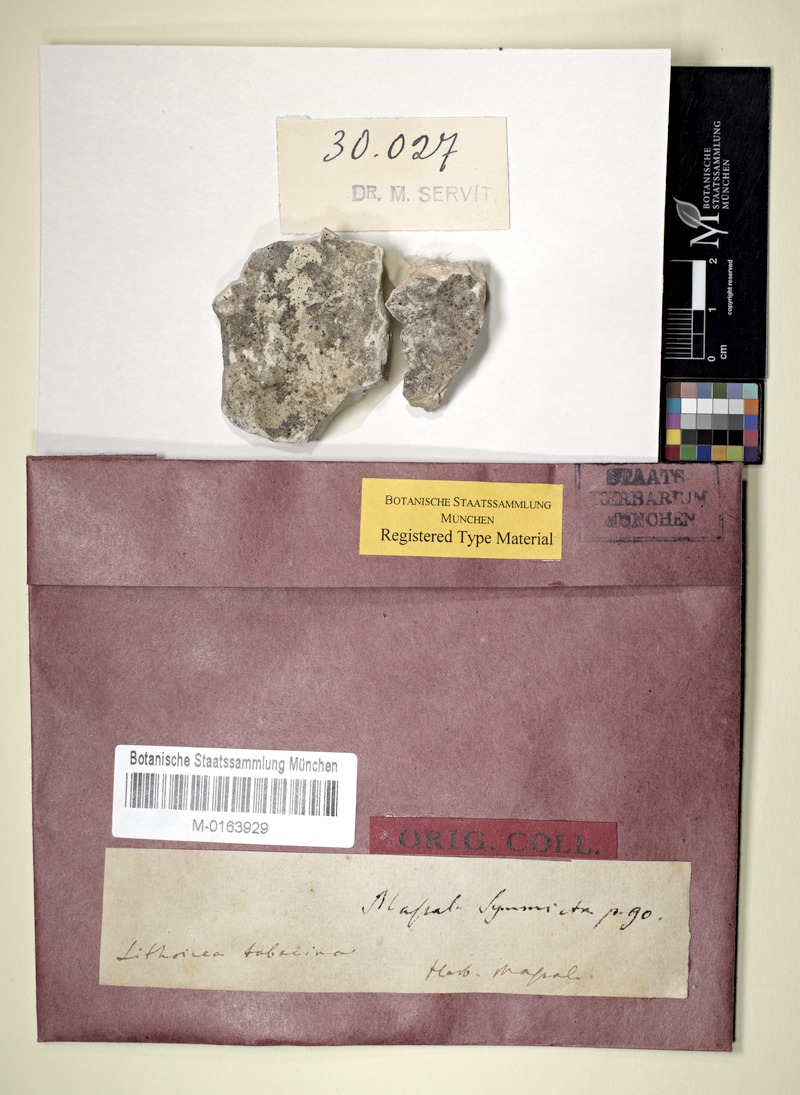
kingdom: Fungi
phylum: Ascomycota
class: Eurotiomycetes
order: Verrucariales
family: Verrucariaceae
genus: Verrucaria
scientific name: Verrucaria tabacina
